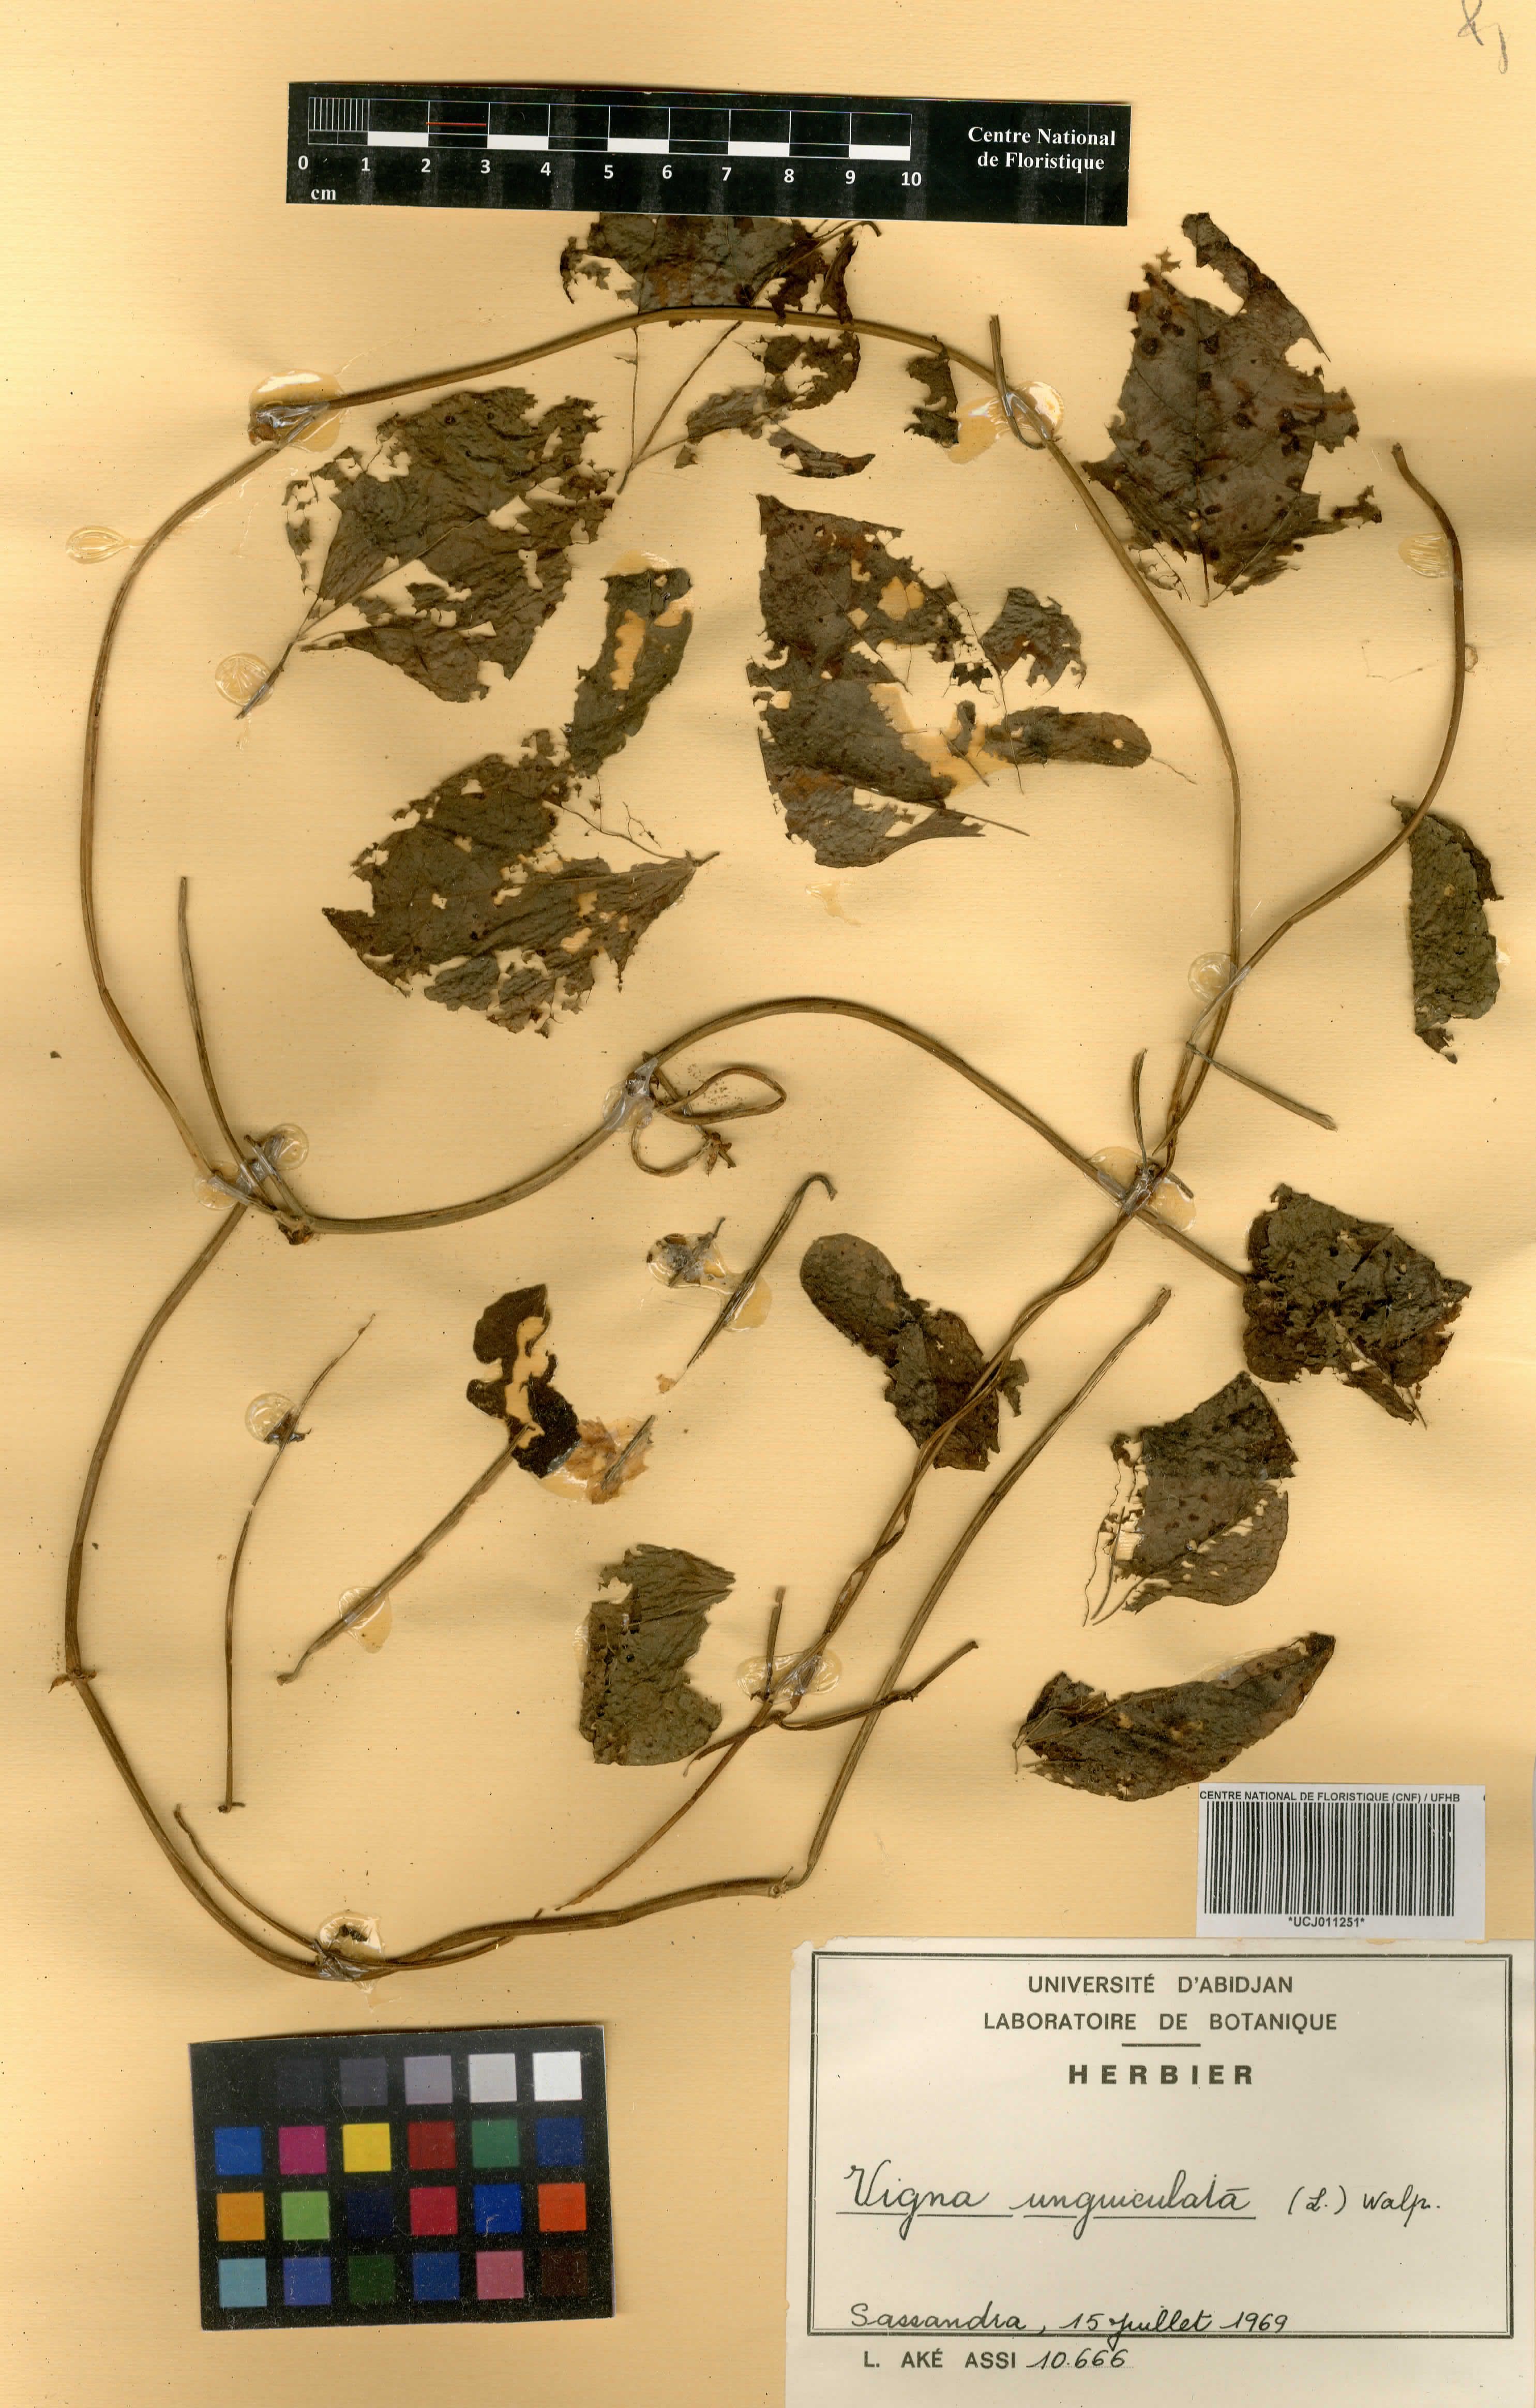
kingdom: Plantae
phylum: Tracheophyta
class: Magnoliopsida
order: Fabales
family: Fabaceae
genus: Vigna
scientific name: Vigna vexillata
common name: Zombi pea
